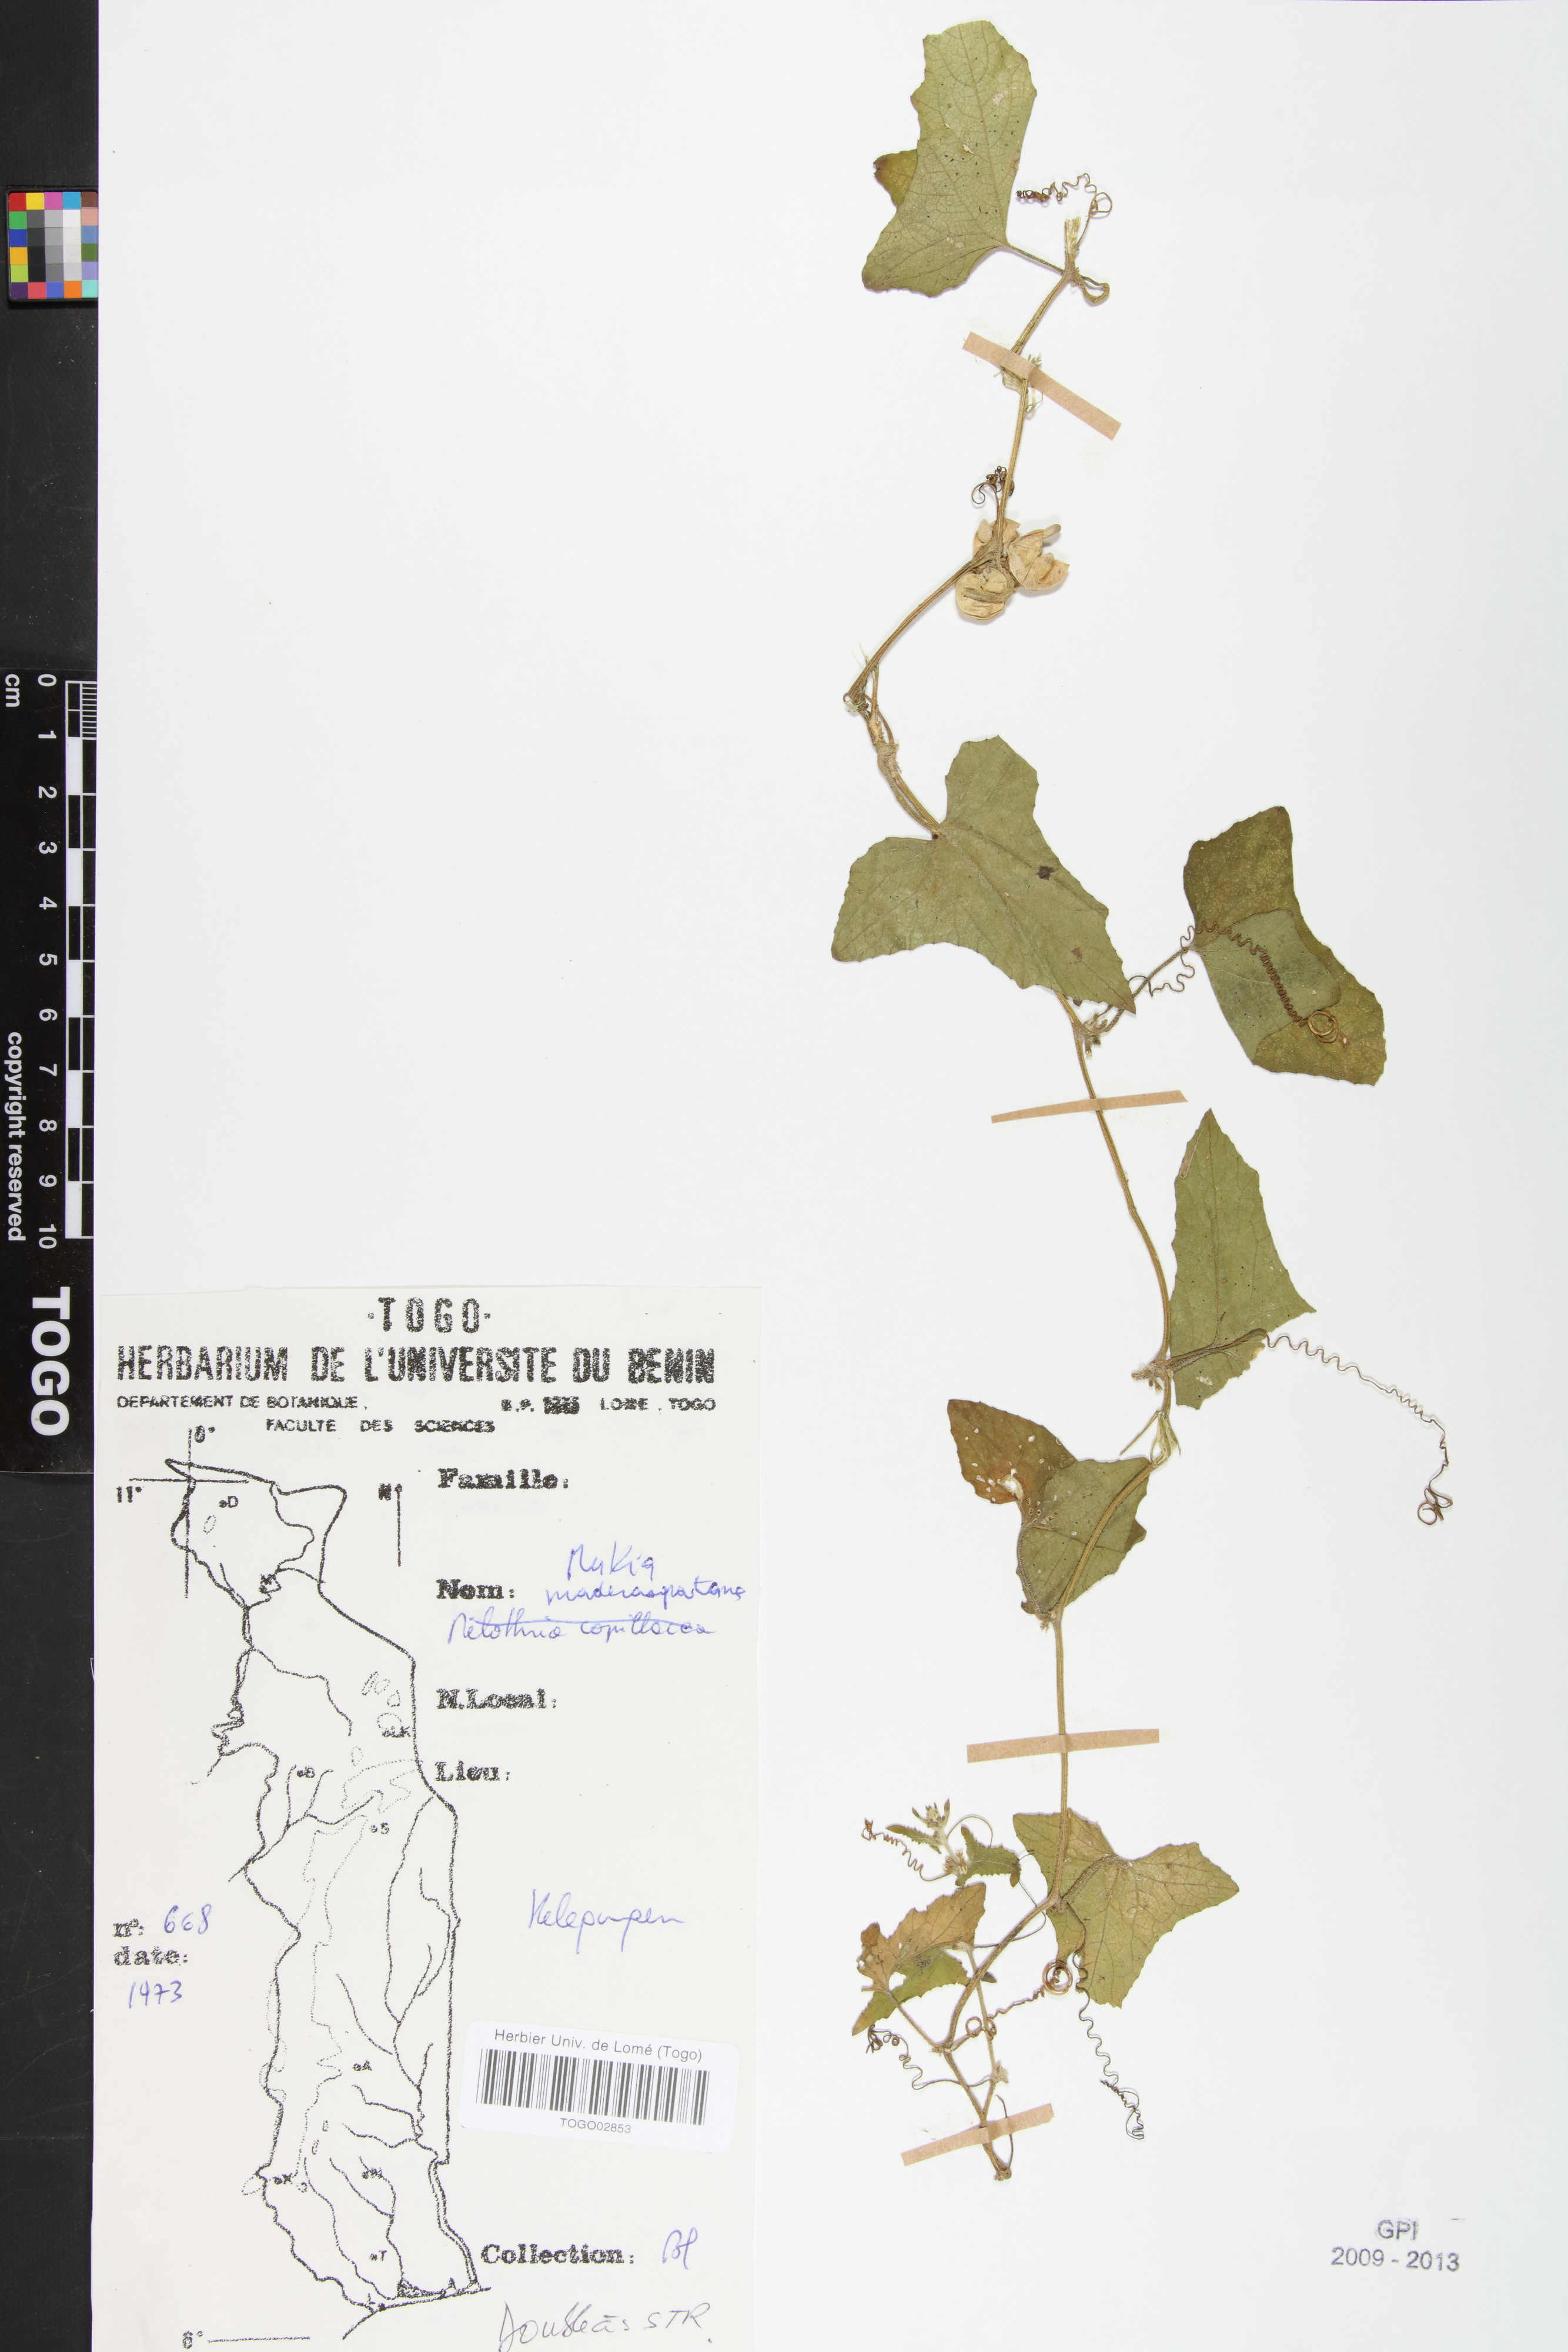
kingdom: Plantae
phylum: Tracheophyta
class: Magnoliopsida
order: Cucurbitales
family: Cucurbitaceae
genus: Cucumis
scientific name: Cucumis maderaspatanus
